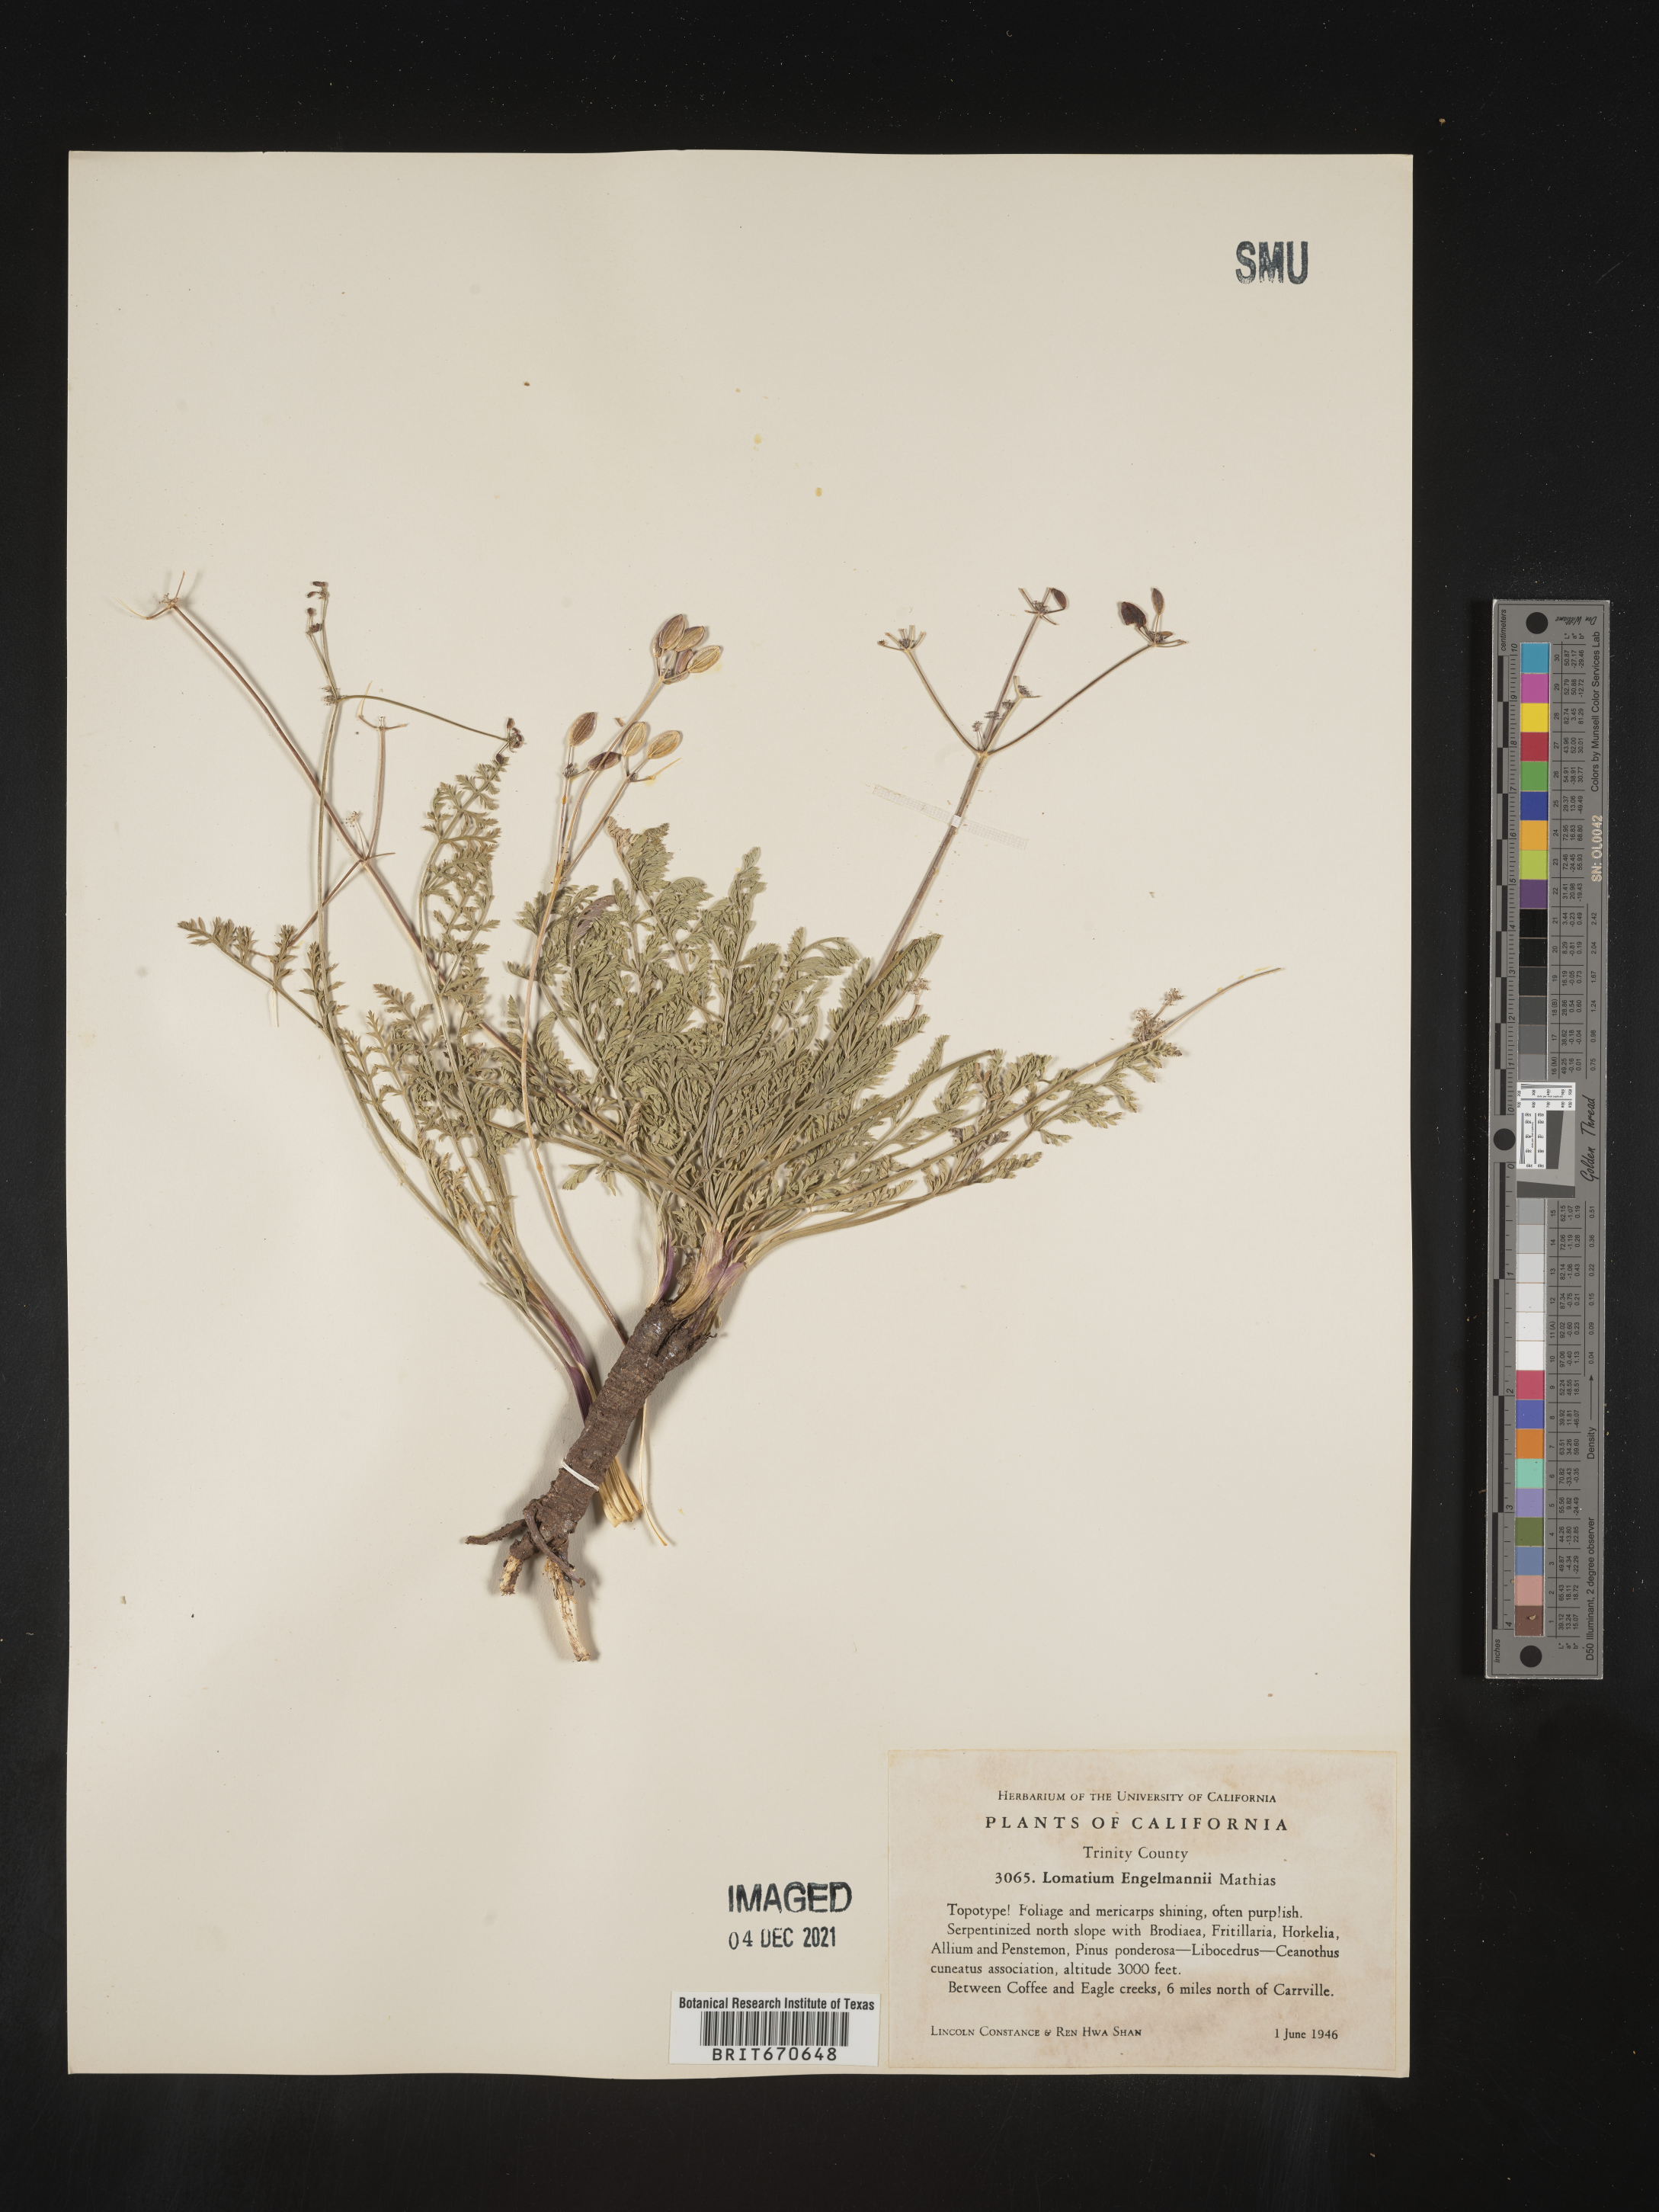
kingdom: Plantae
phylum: Tracheophyta
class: Magnoliopsida
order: Apiales
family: Apiaceae
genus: Lomatium
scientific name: Lomatium
